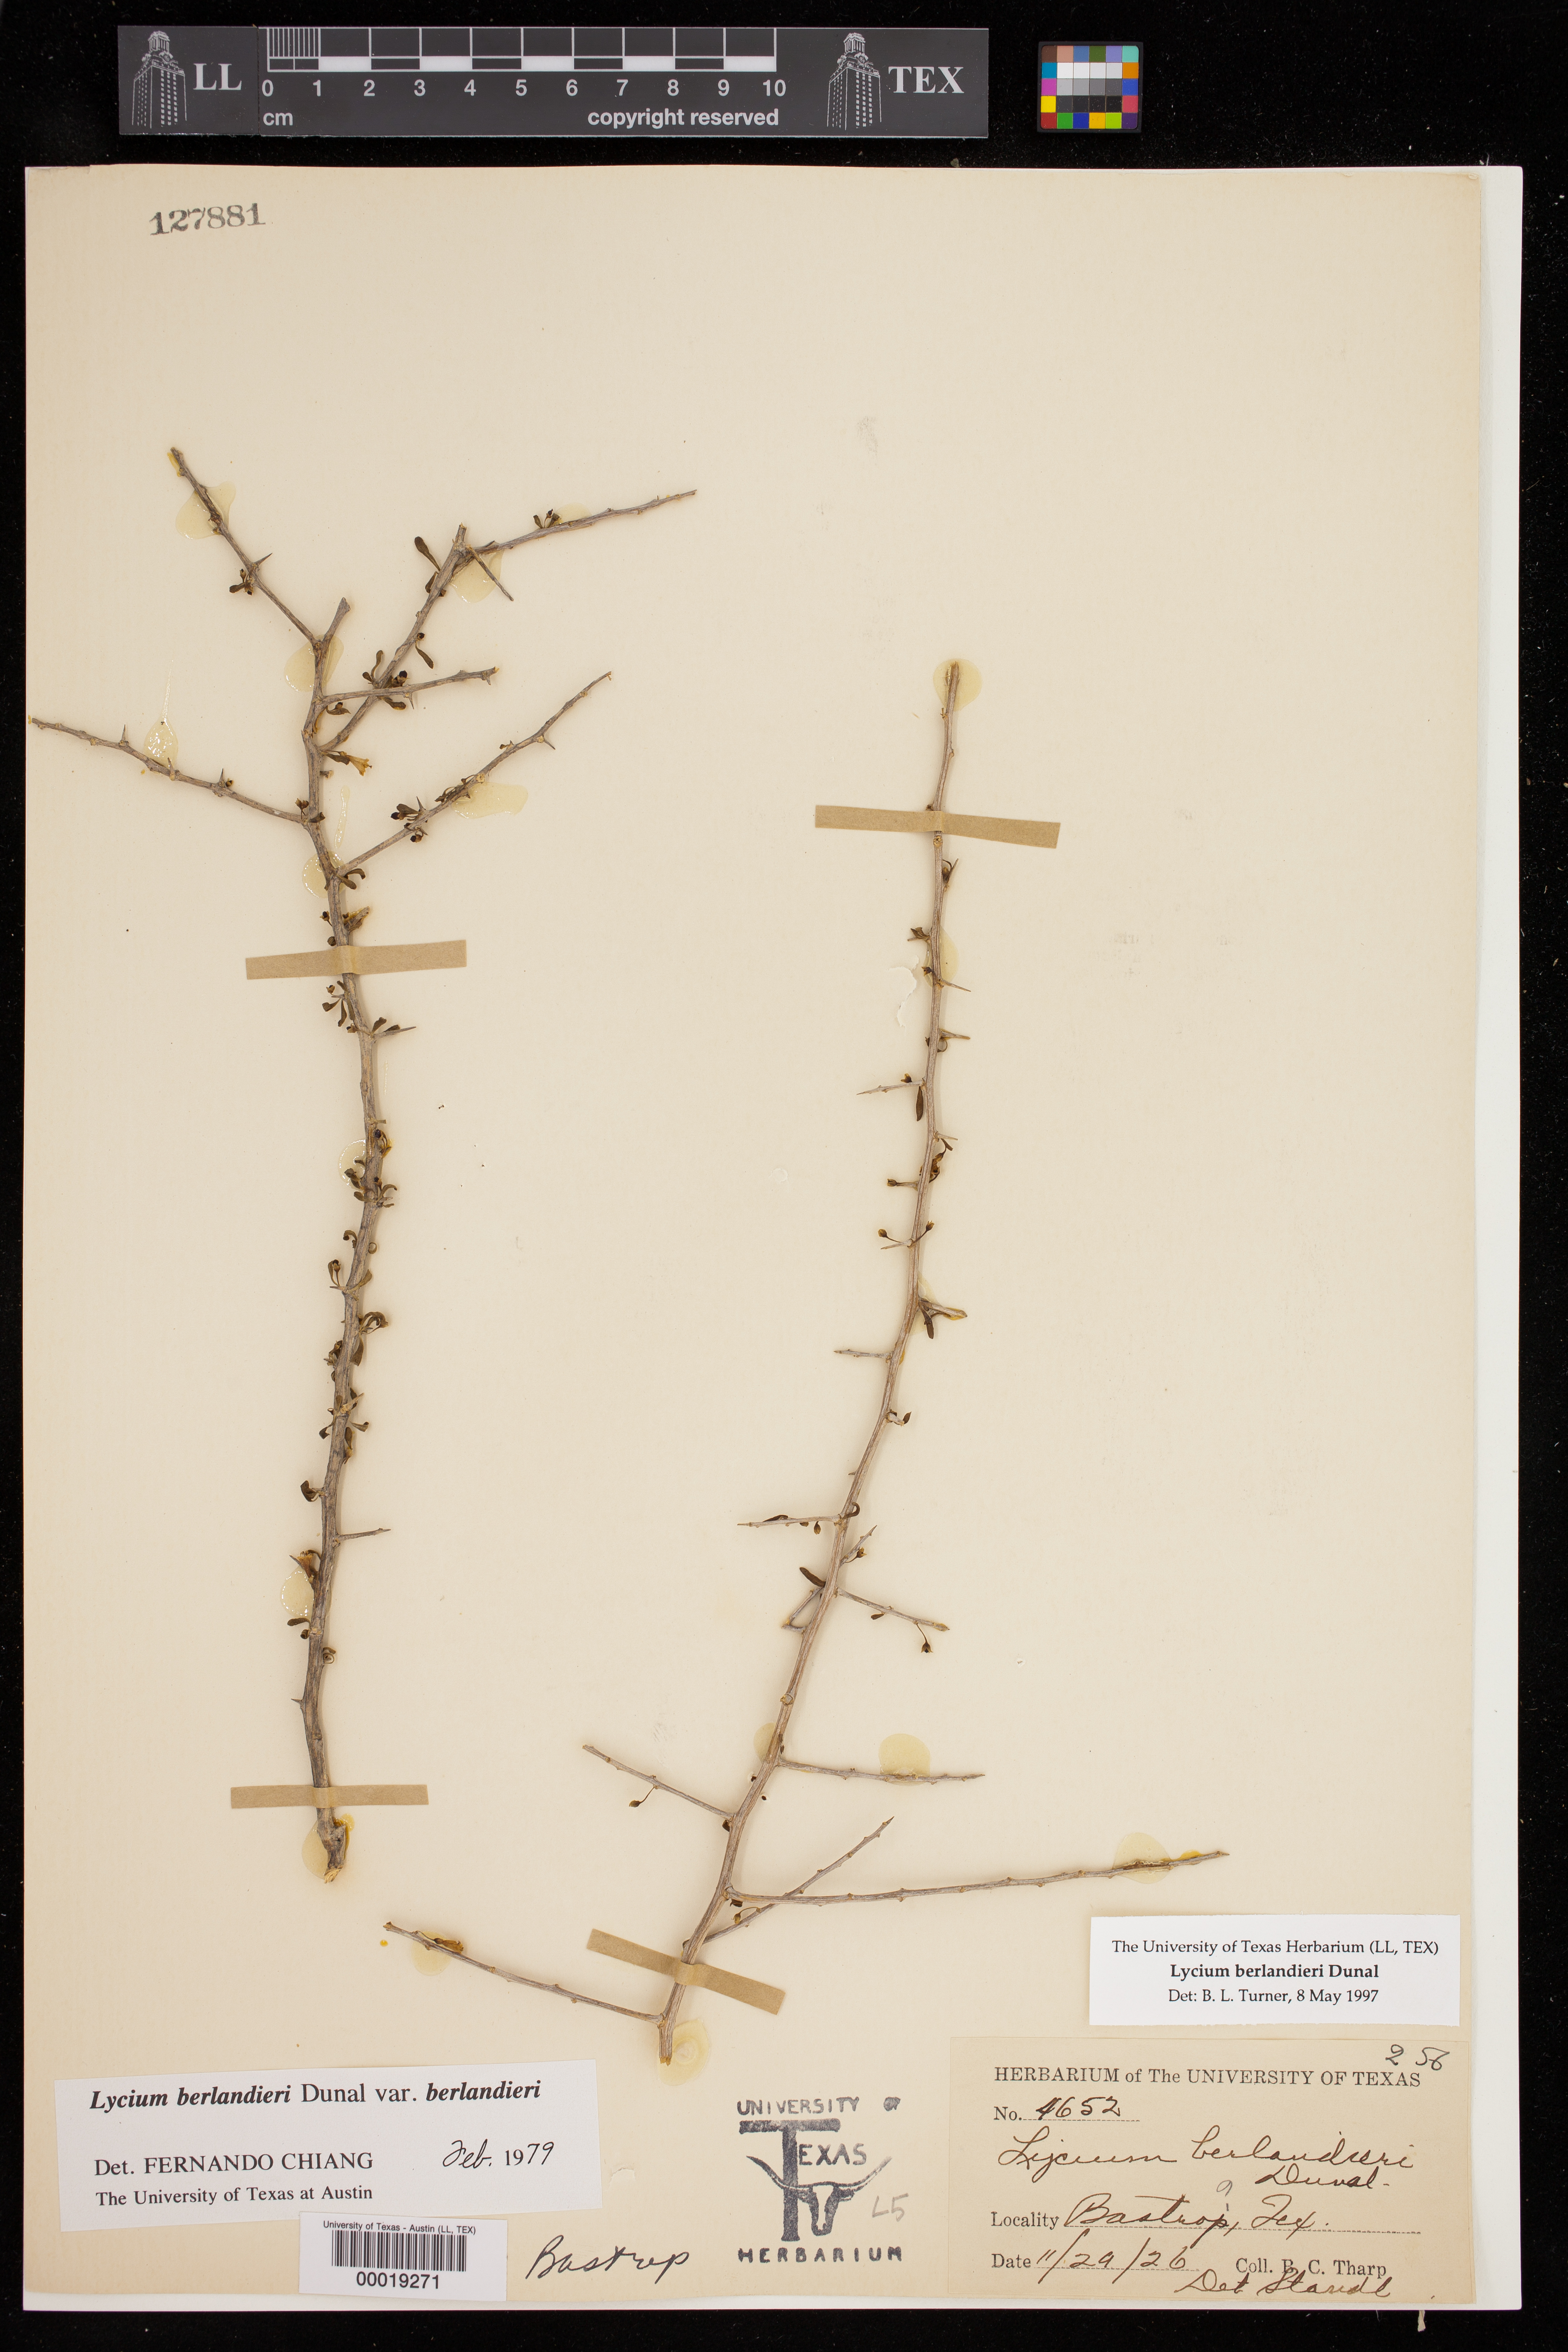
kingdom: Plantae
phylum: Tracheophyta
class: Magnoliopsida
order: Solanales
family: Solanaceae
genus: Lycium
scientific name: Lycium berlandieri
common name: Berlandier wolfberry
